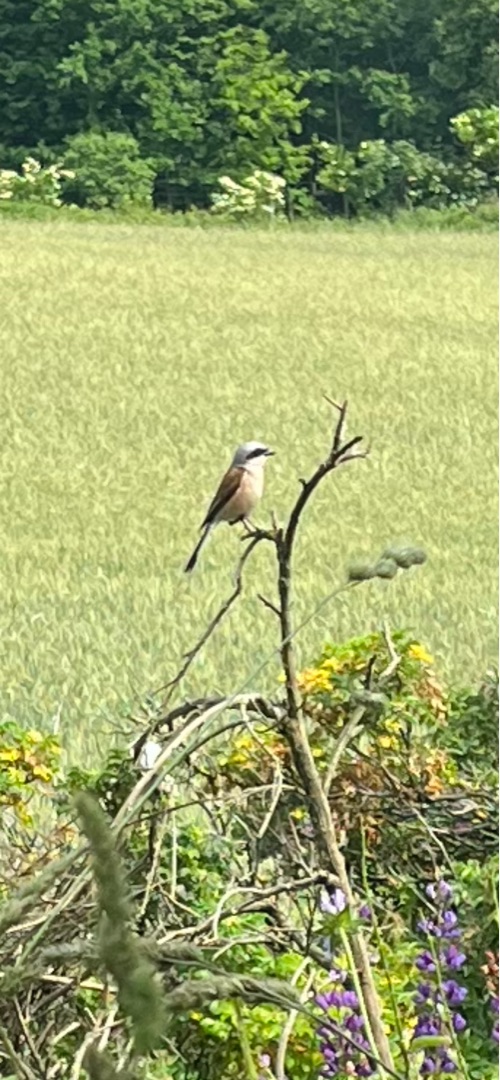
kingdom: Animalia
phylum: Chordata
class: Aves
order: Passeriformes
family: Laniidae
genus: Lanius
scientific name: Lanius collurio
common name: Rødrygget tornskade
